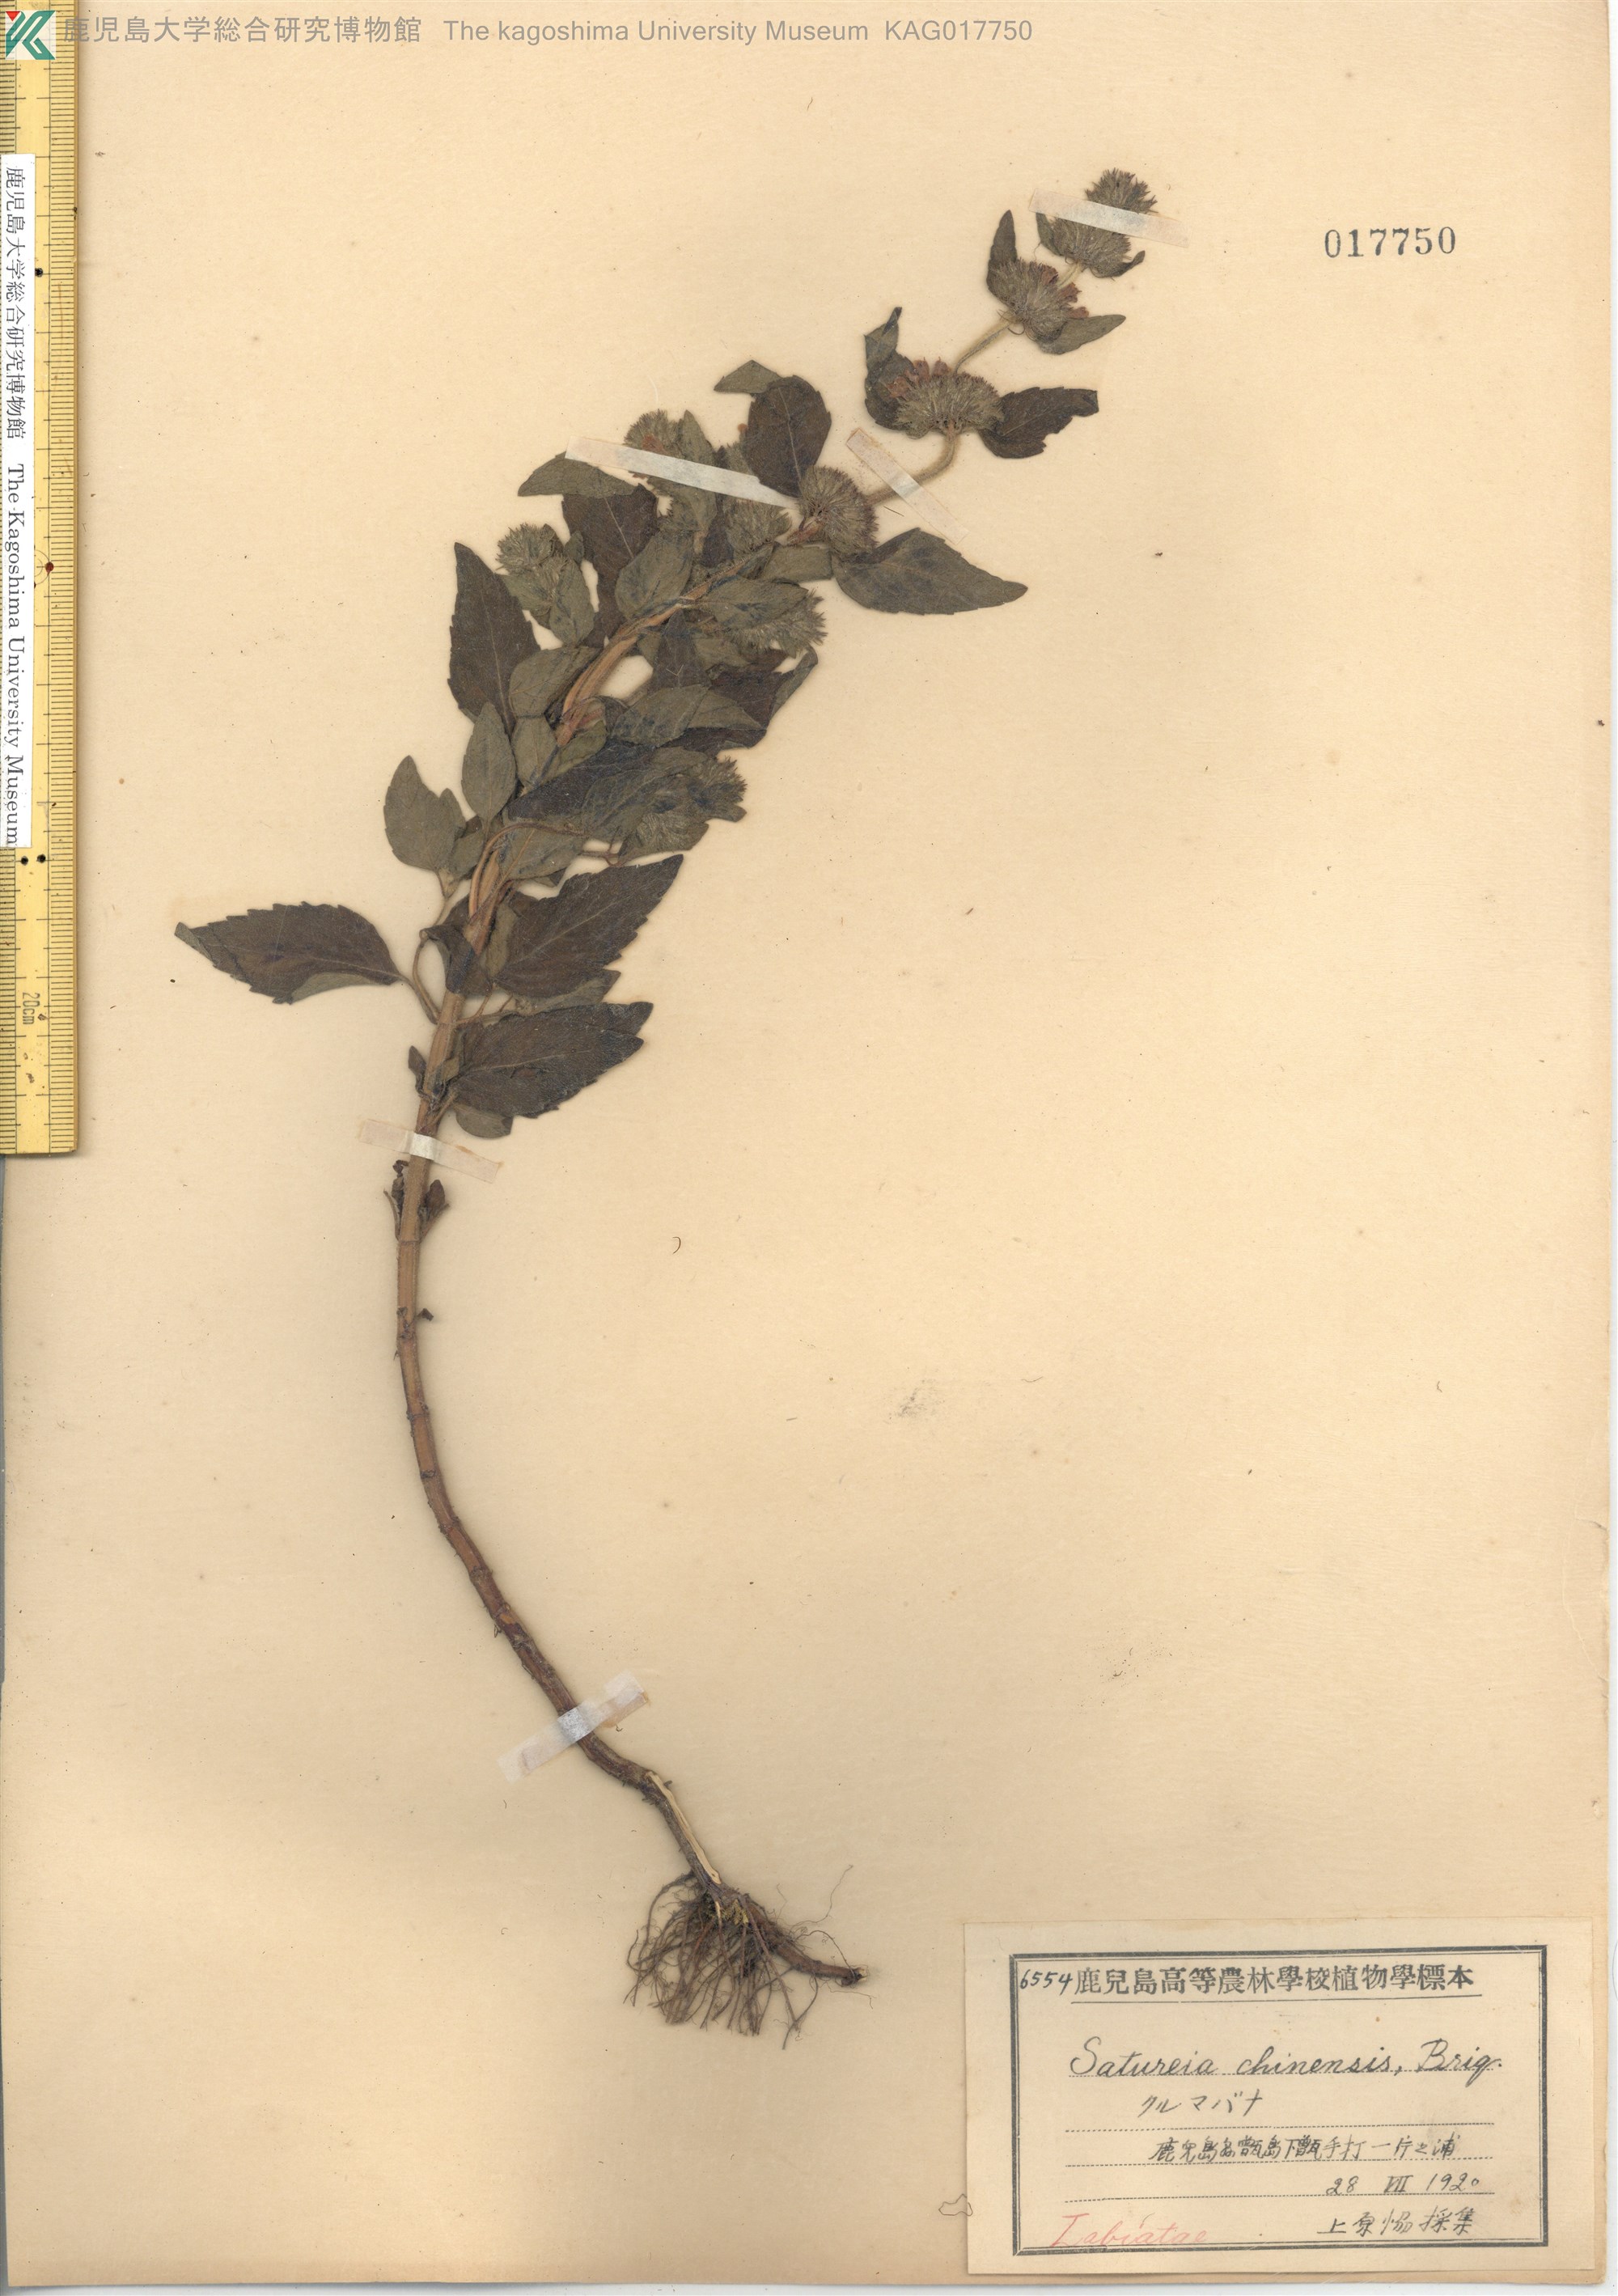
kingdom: Plantae
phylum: Tracheophyta
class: Magnoliopsida
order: Lamiales
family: Lamiaceae
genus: Clinopodium
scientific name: Clinopodium chinense
